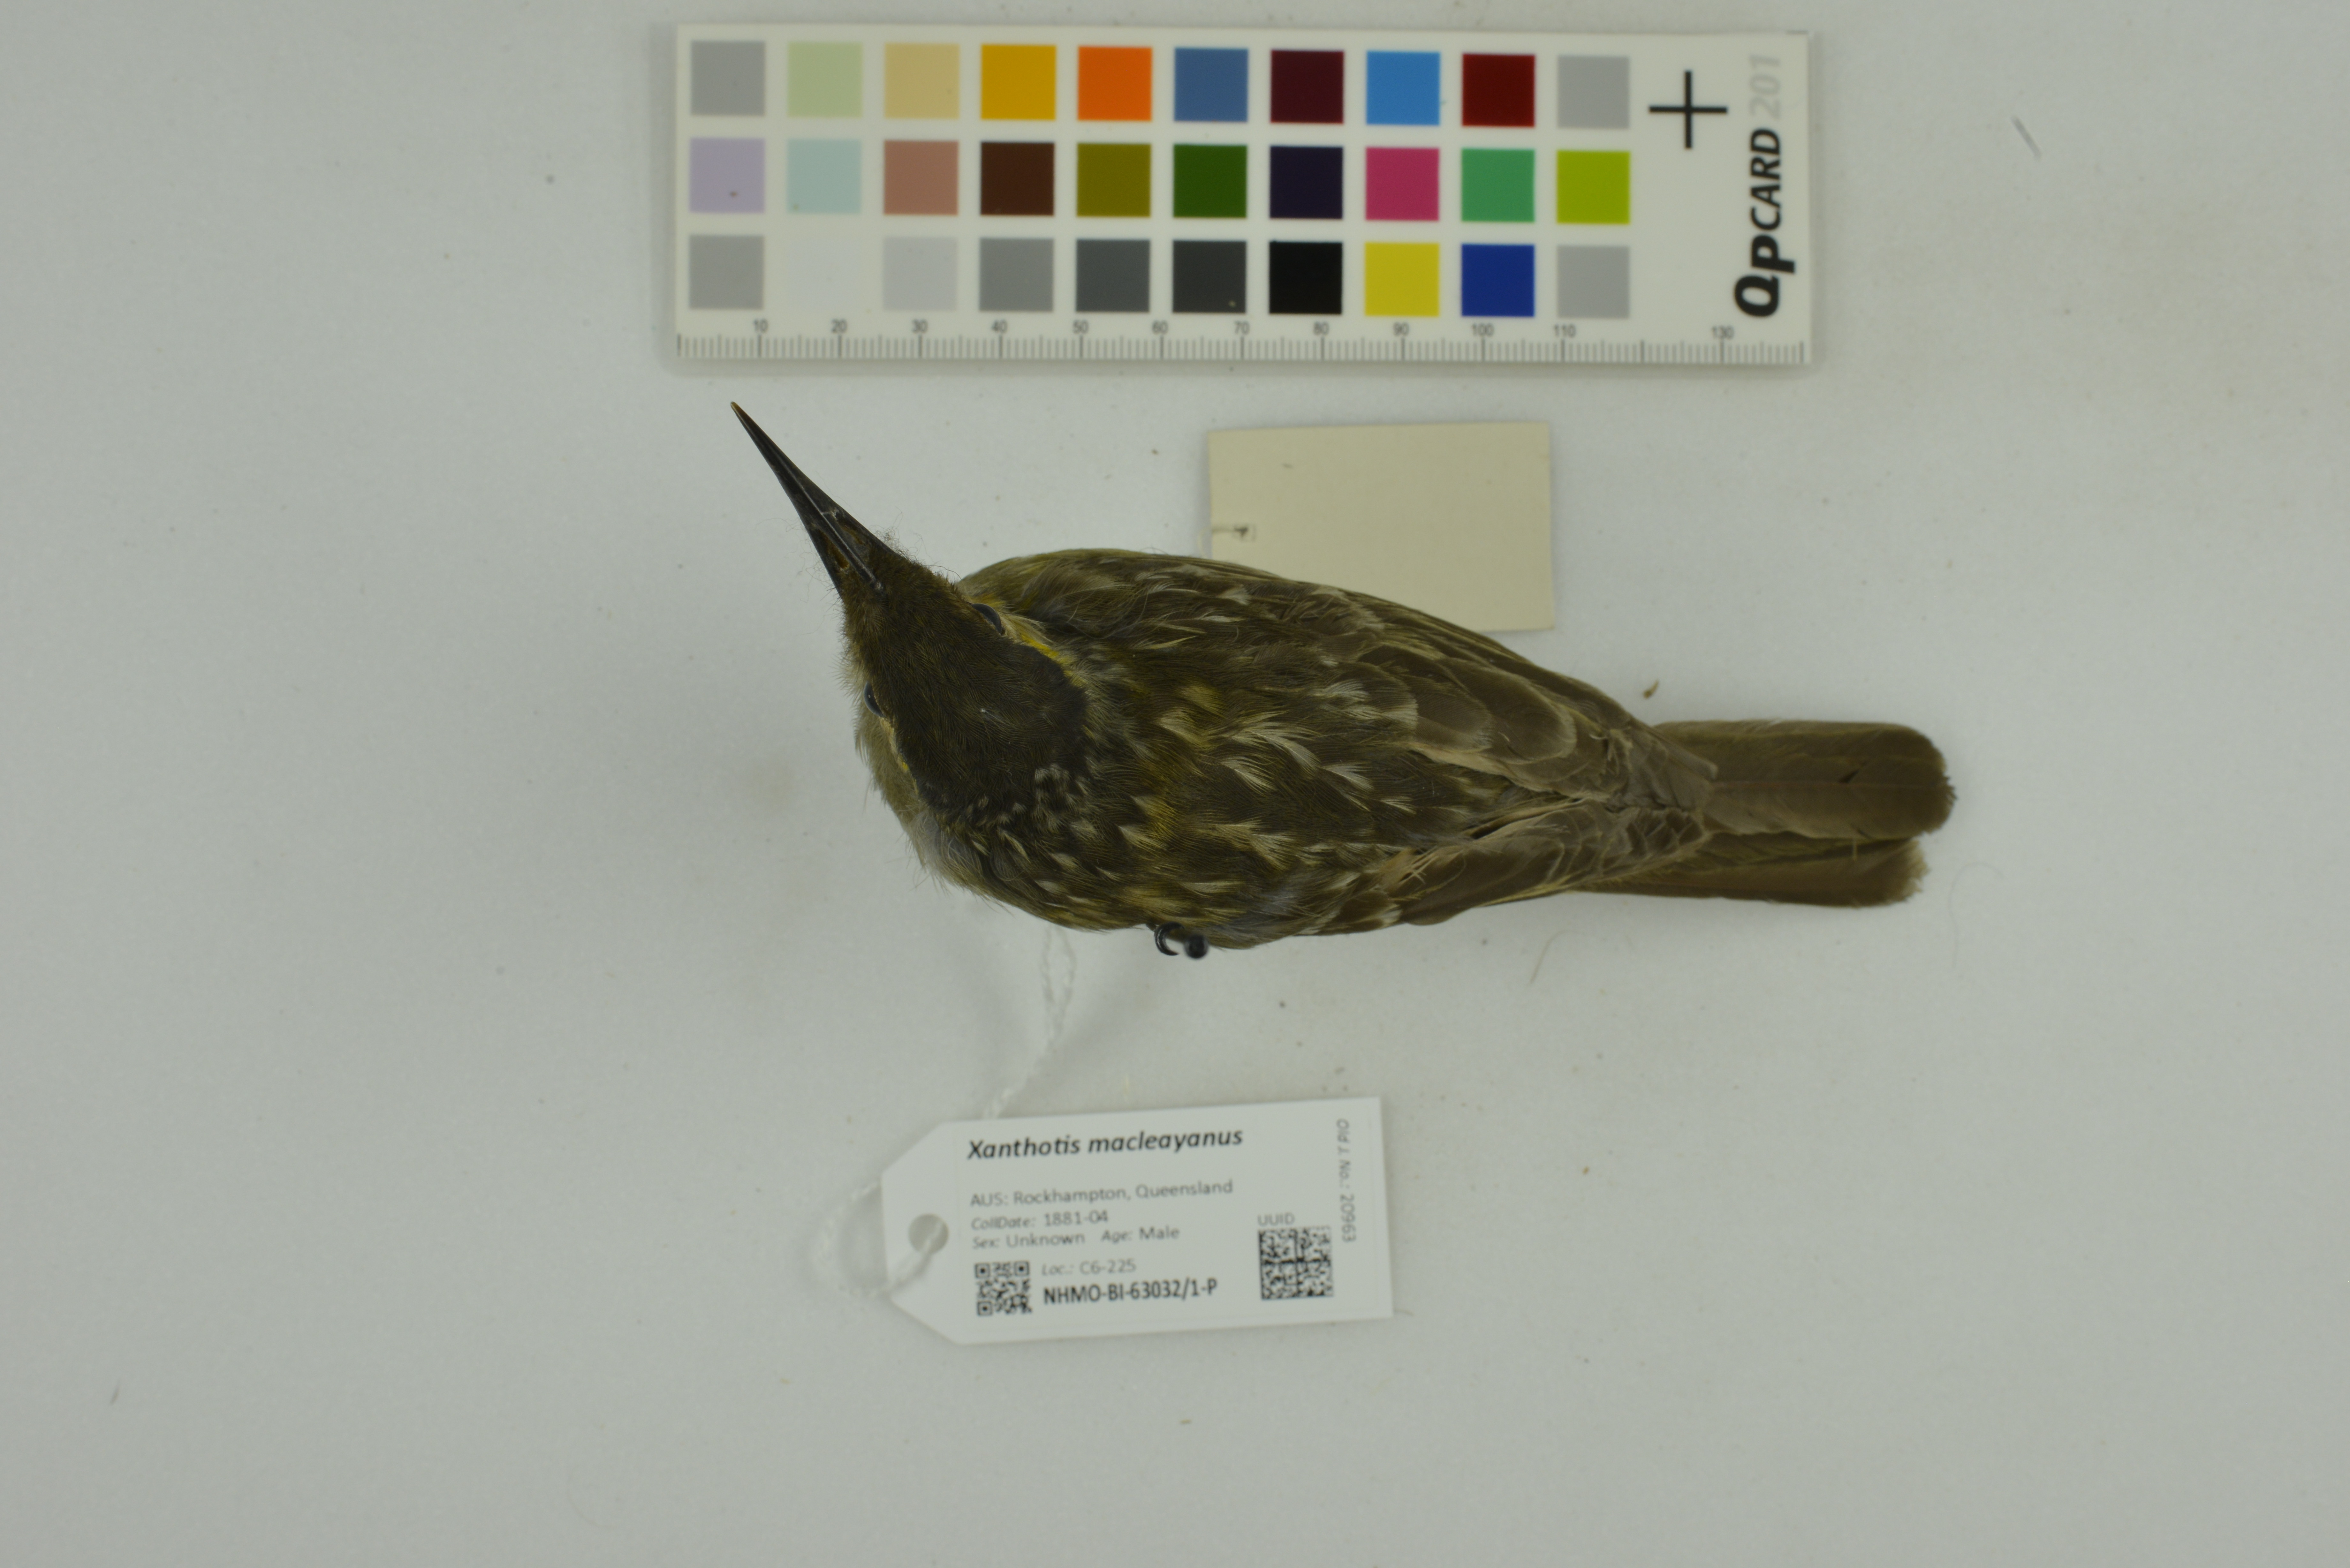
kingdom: Animalia
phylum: Chordata
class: Aves
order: Passeriformes
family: Meliphagidae
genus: Xanthotis
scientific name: Xanthotis macleayanus
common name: Macleay's honeyeater
